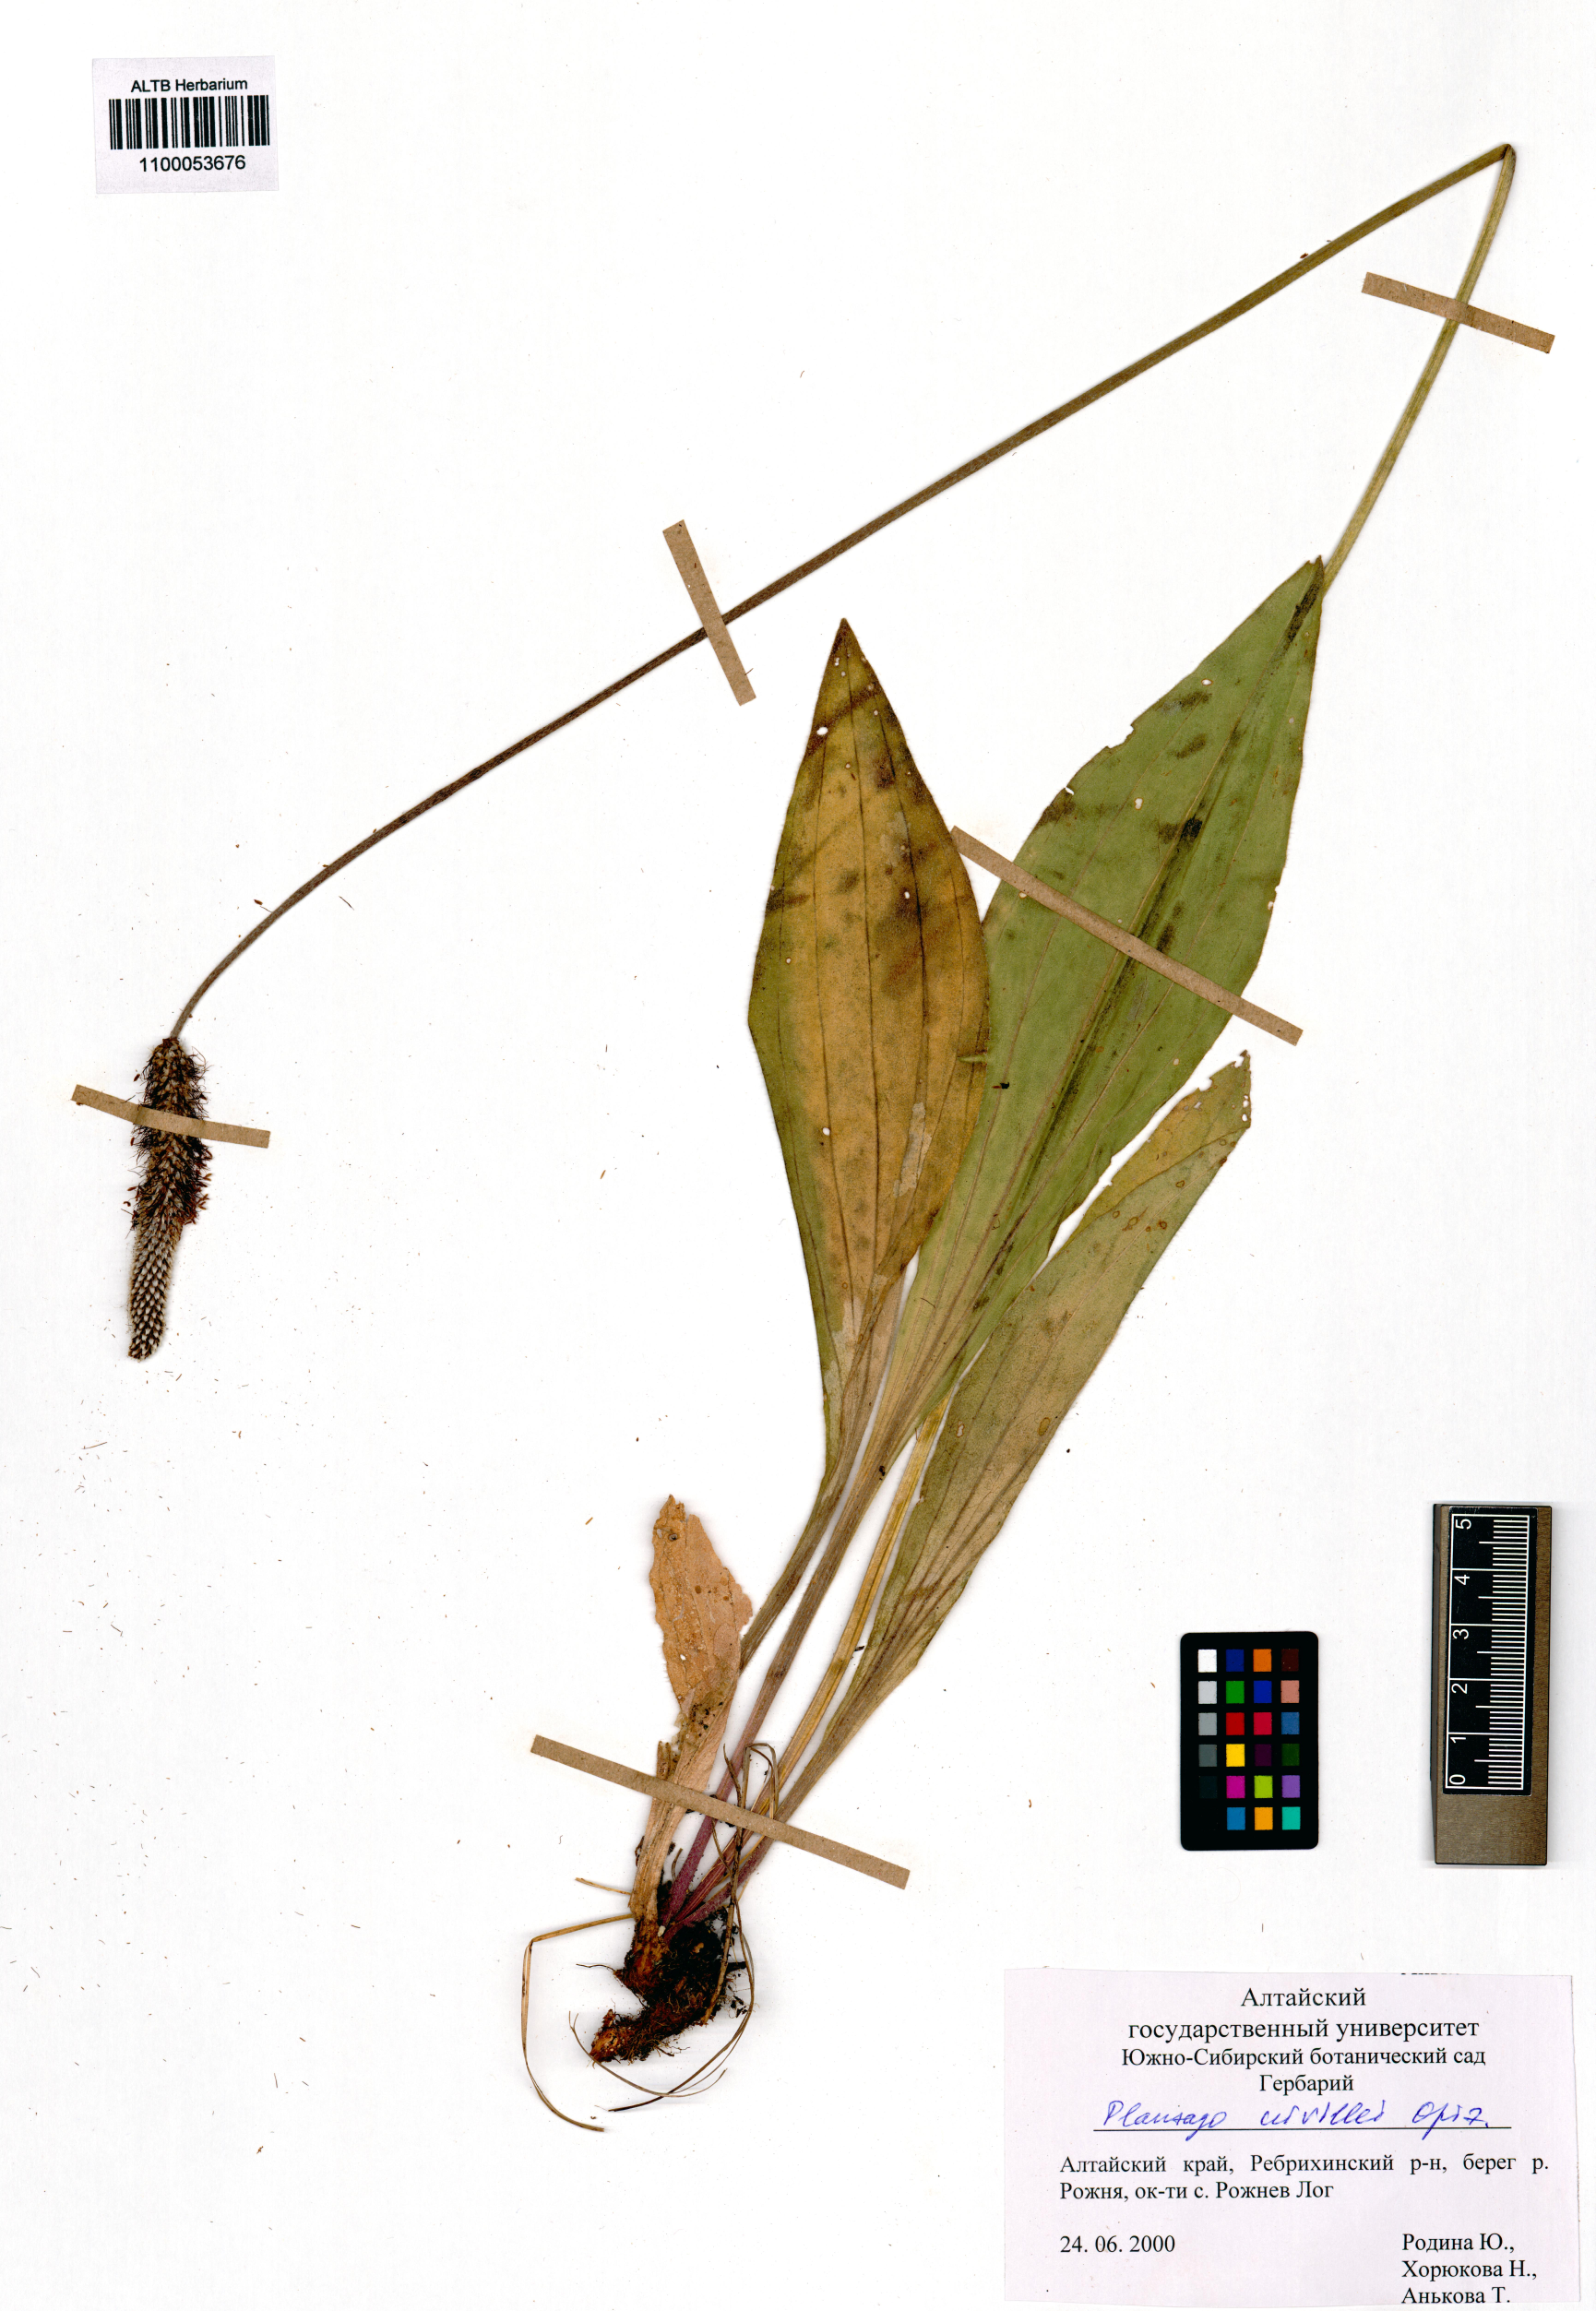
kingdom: Plantae
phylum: Tracheophyta
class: Magnoliopsida
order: Lamiales
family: Plantaginaceae
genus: Plantago
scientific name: Plantago urvillei
